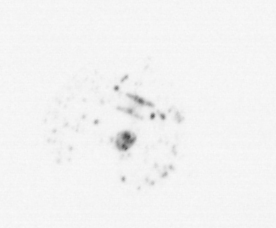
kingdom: Chromista
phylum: Ochrophyta
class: Bacillariophyceae
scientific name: Bacillariophyceae
